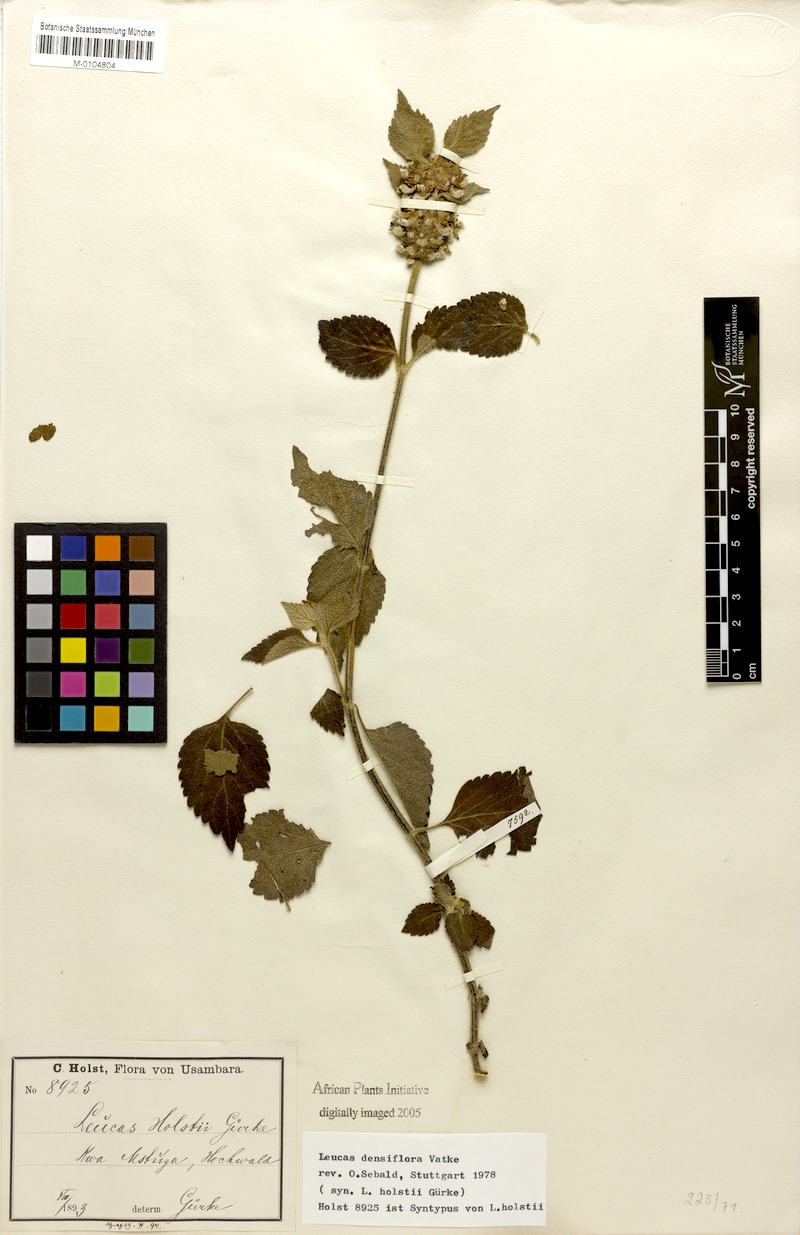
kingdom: Plantae
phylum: Tracheophyta
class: Magnoliopsida
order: Lamiales
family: Lamiaceae
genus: Leucas
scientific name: Leucas densiflora
